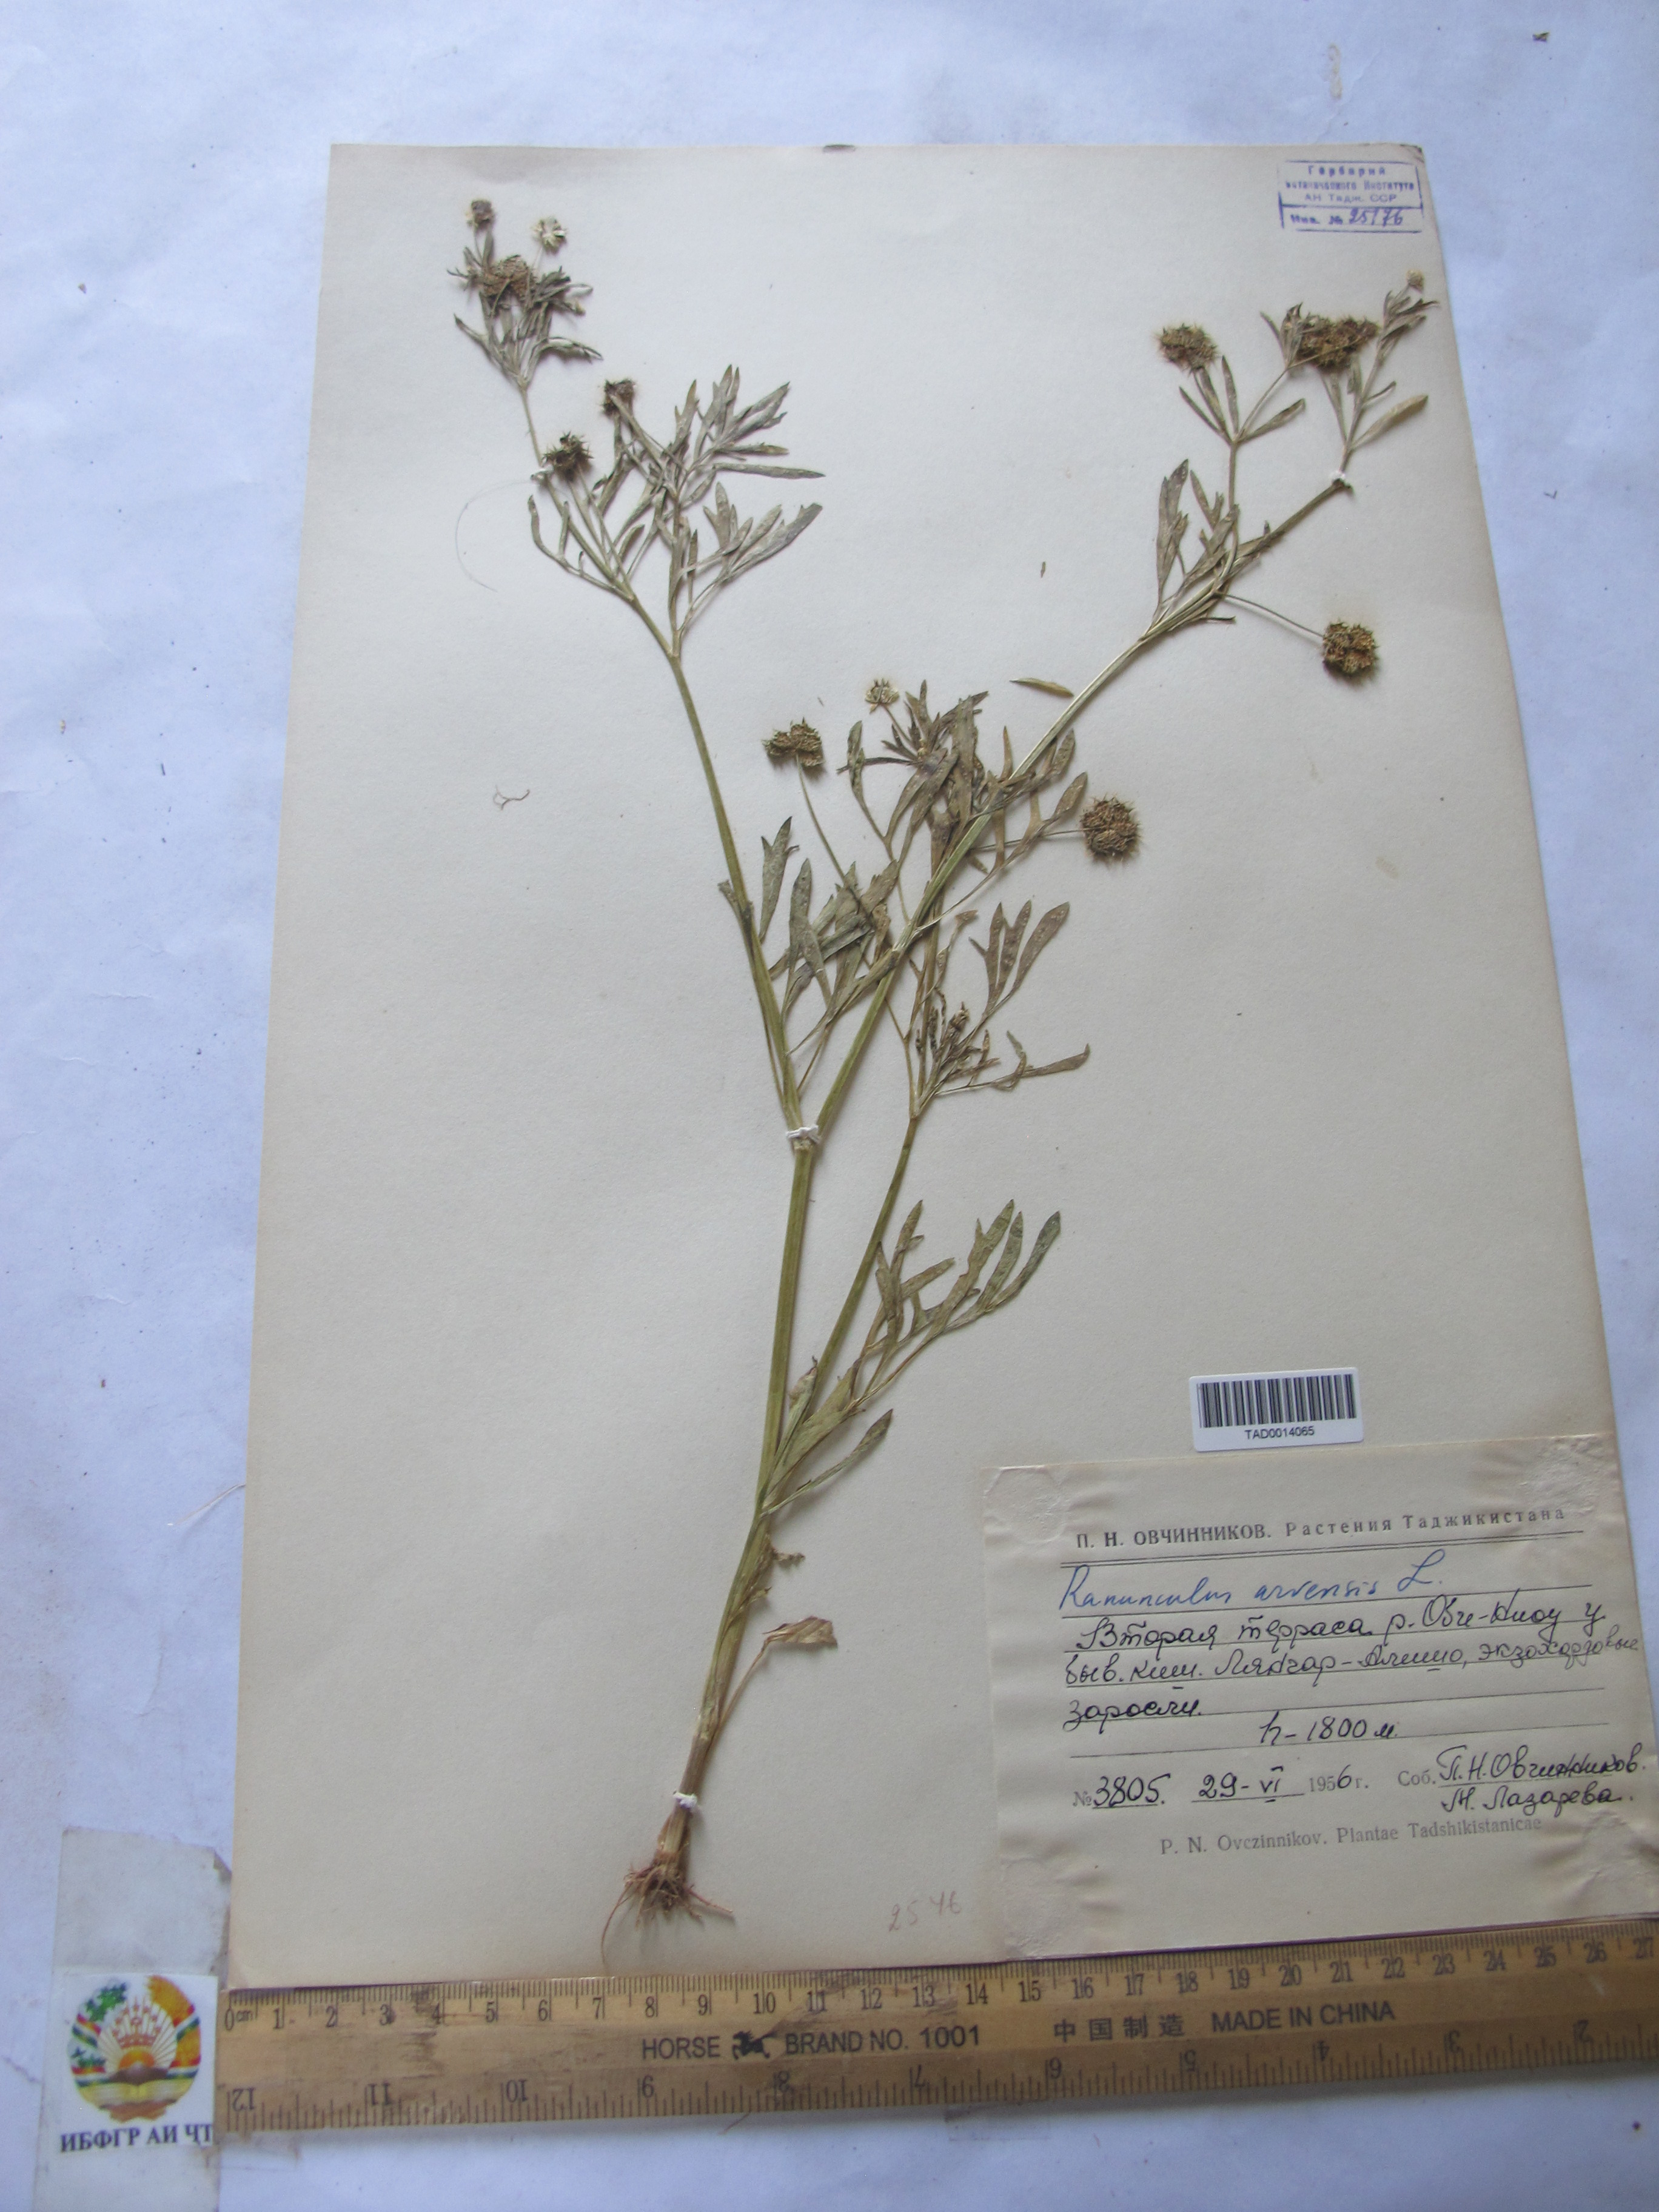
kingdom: Plantae
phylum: Tracheophyta
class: Magnoliopsida
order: Ranunculales
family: Ranunculaceae
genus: Ranunculus
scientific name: Ranunculus arvensis
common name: Corn buttercup
